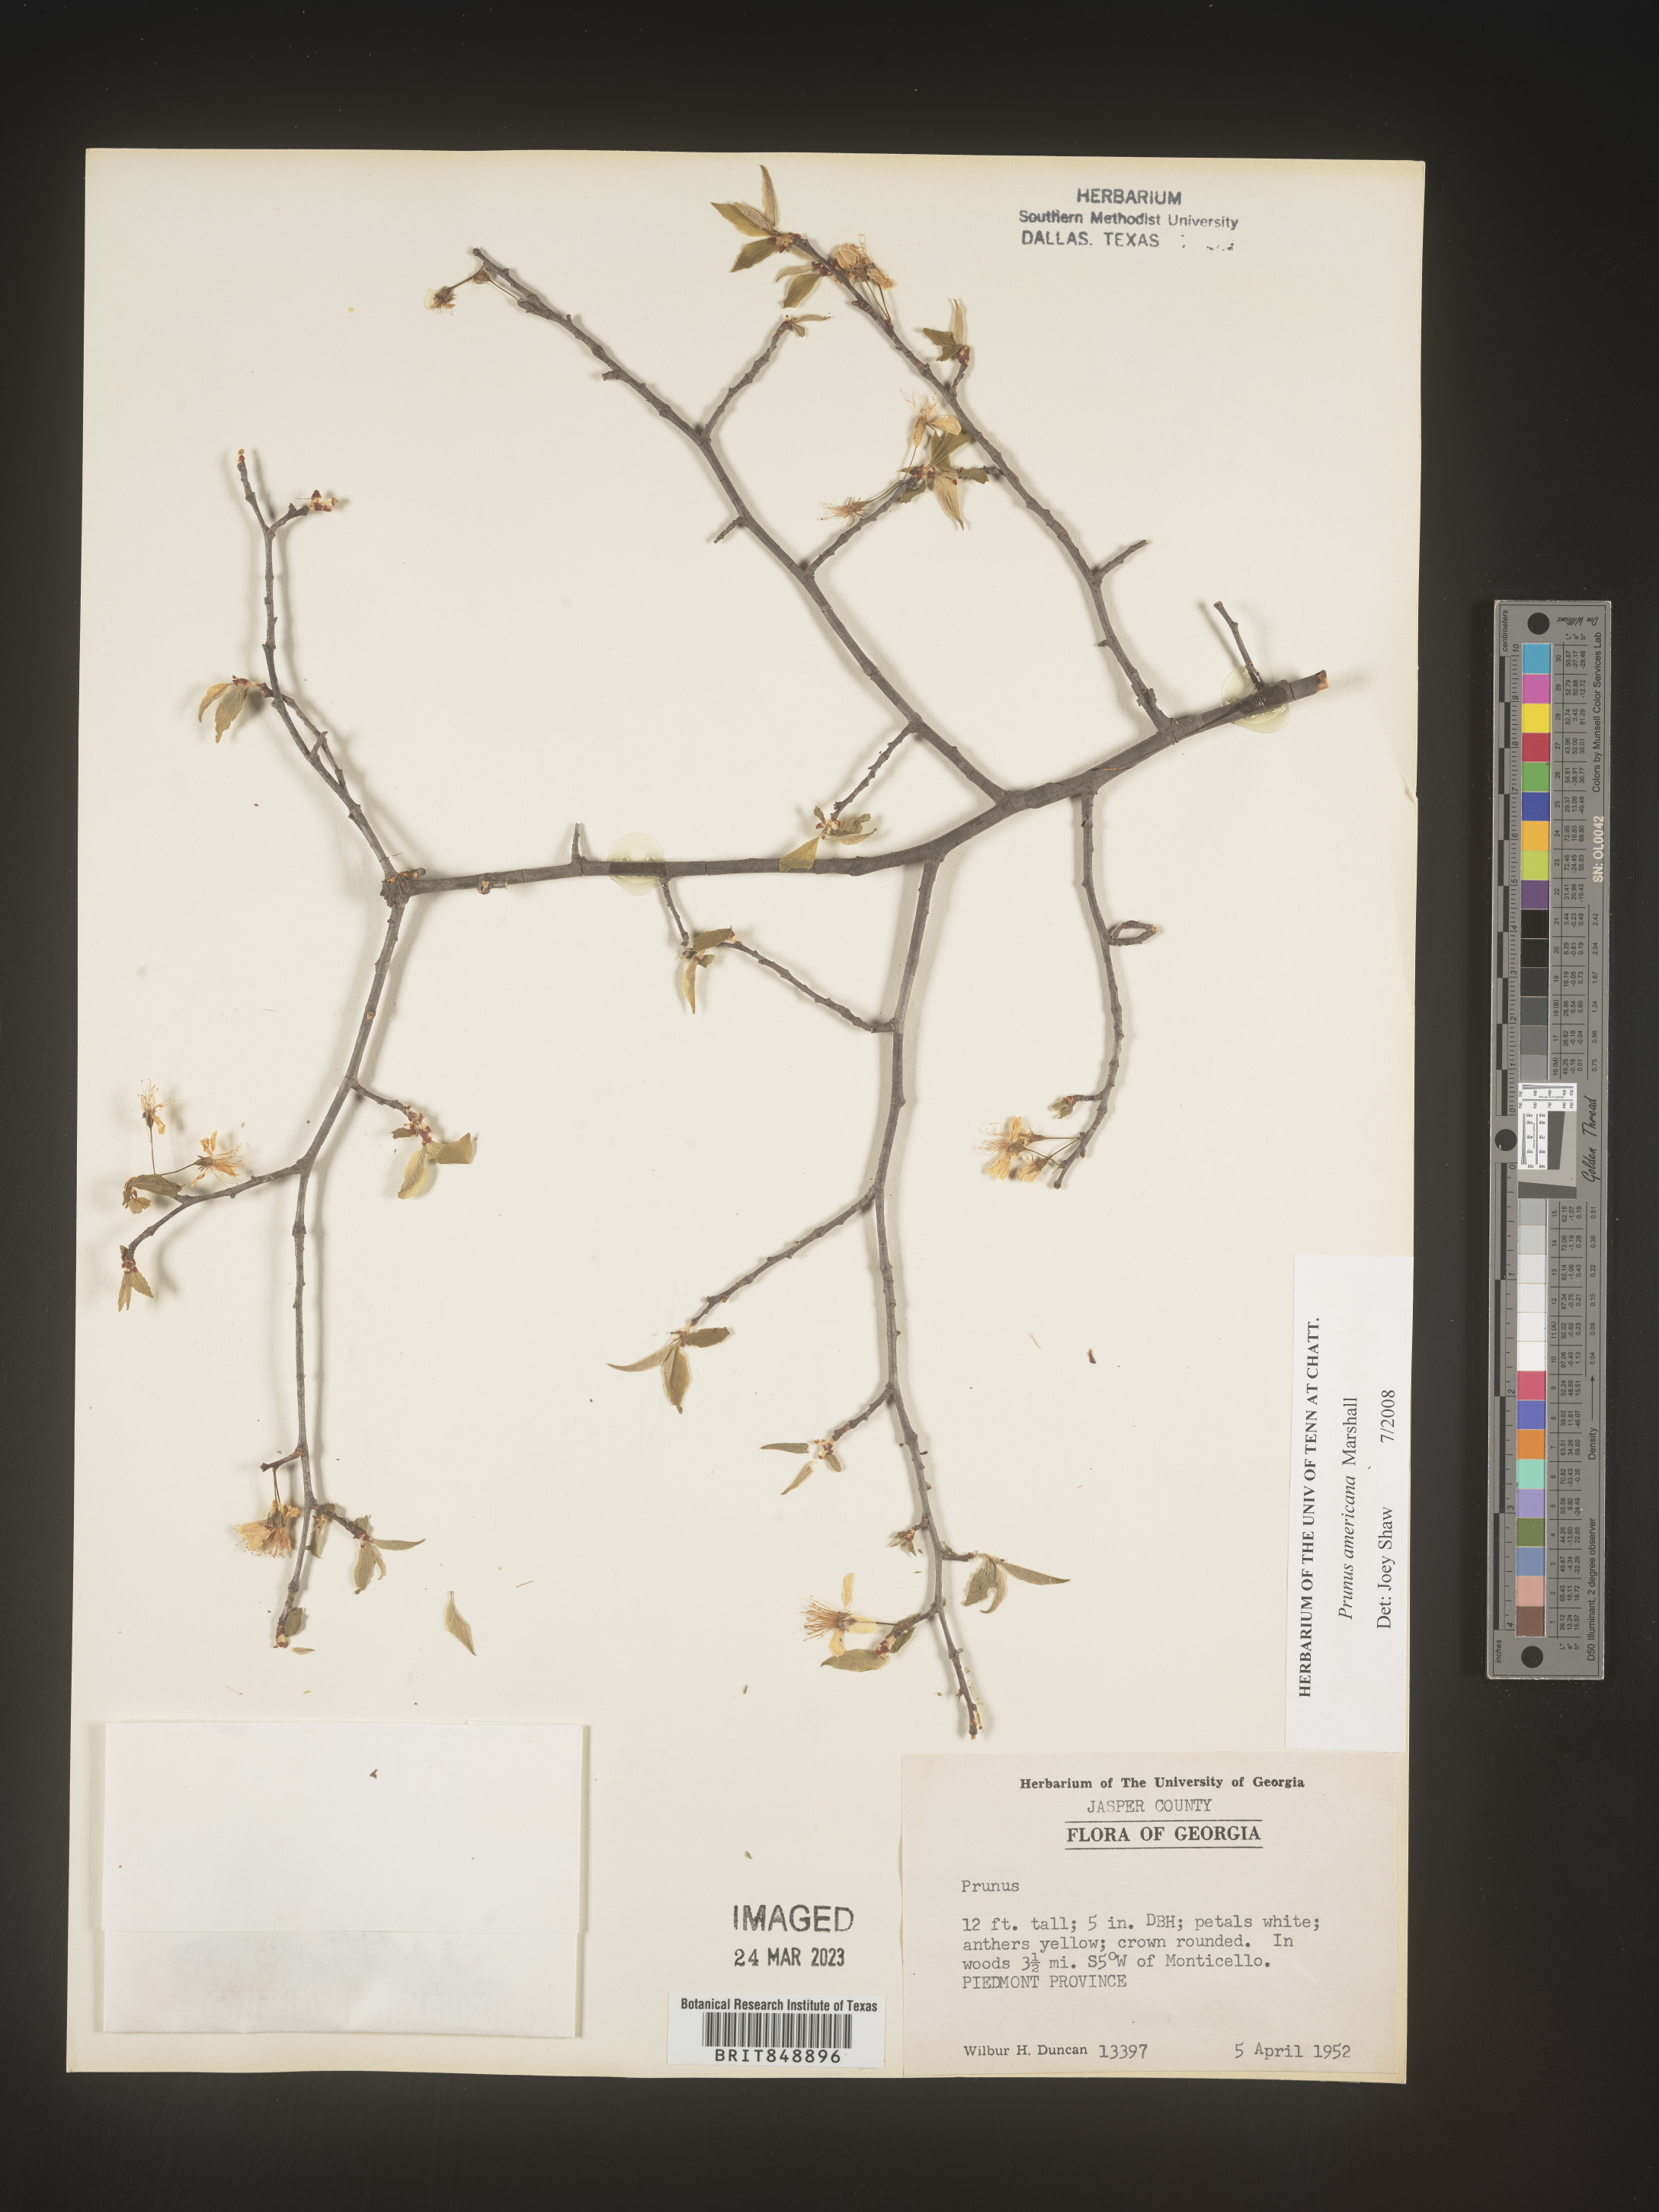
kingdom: Plantae
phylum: Tracheophyta
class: Magnoliopsida
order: Rosales
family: Rosaceae
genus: Prunus
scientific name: Prunus americana
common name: American plum
